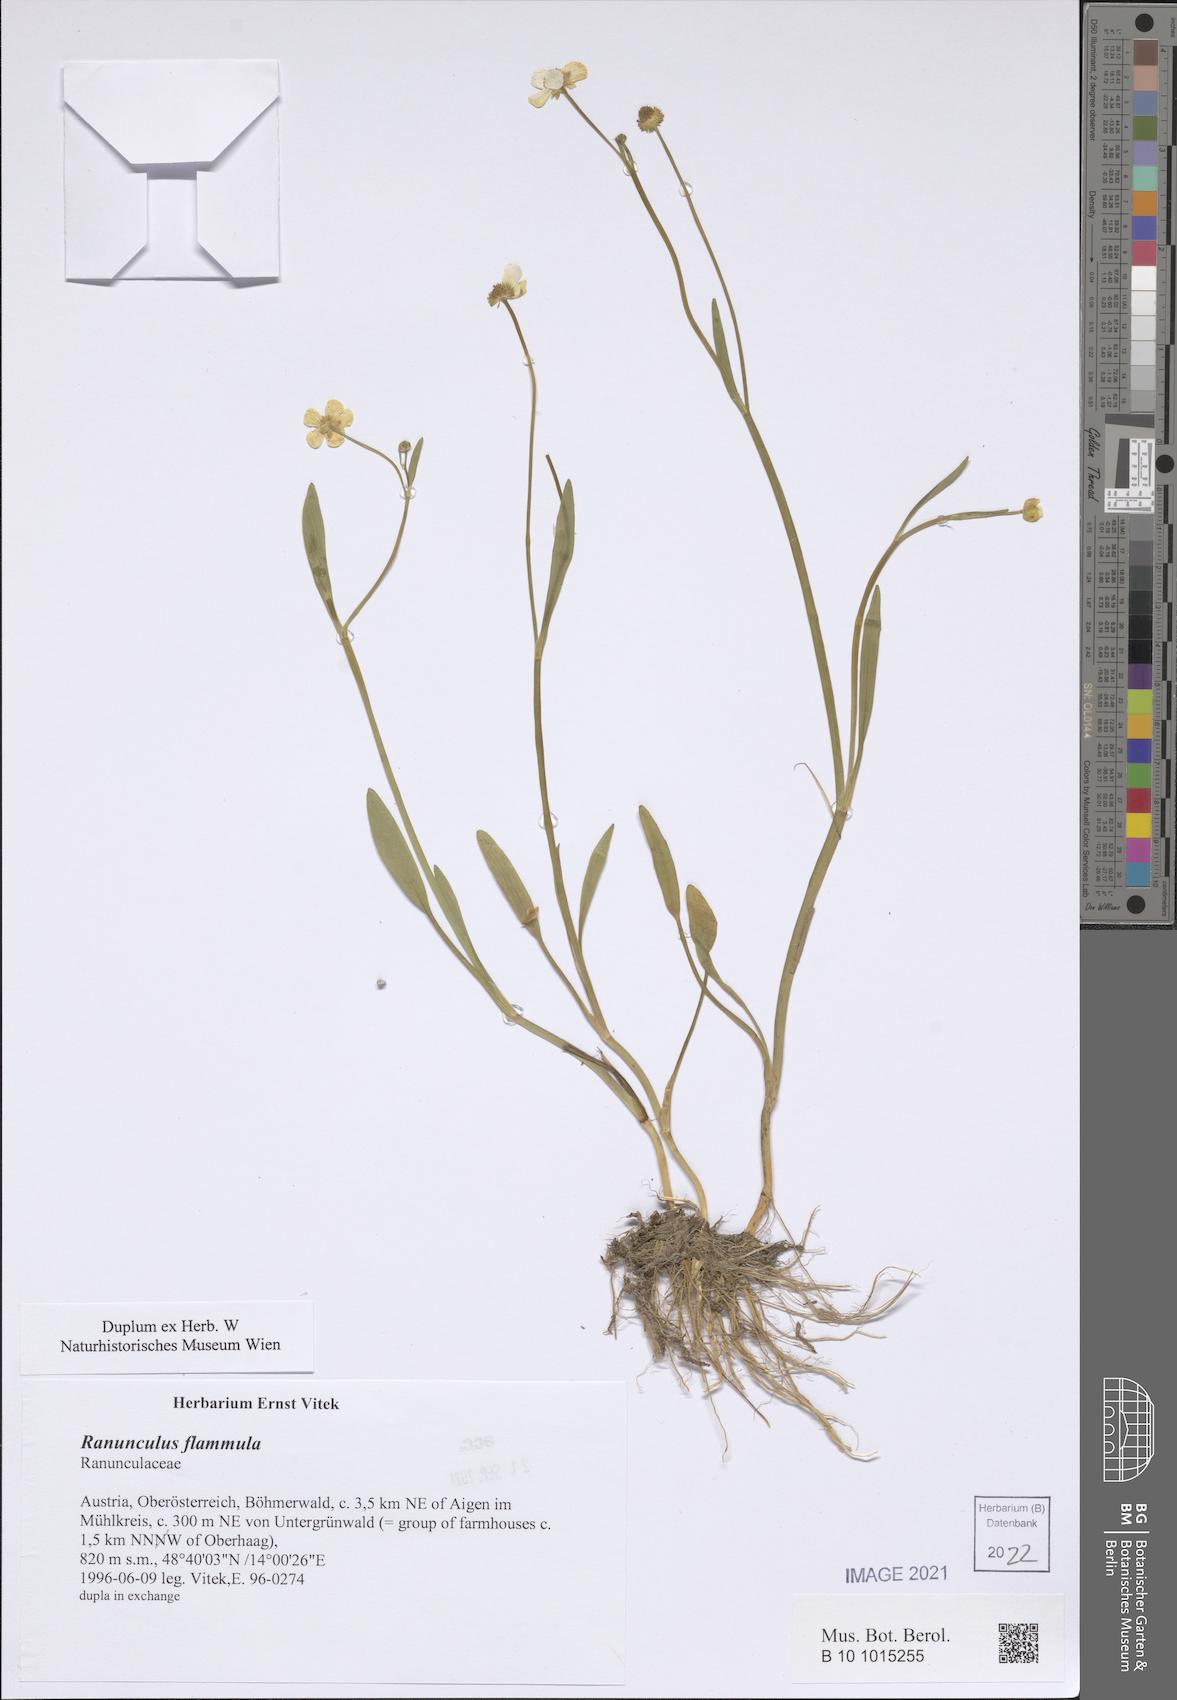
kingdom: Plantae
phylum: Tracheophyta
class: Magnoliopsida
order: Ranunculales
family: Ranunculaceae
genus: Ranunculus
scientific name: Ranunculus flammula
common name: Lesser spearwort
